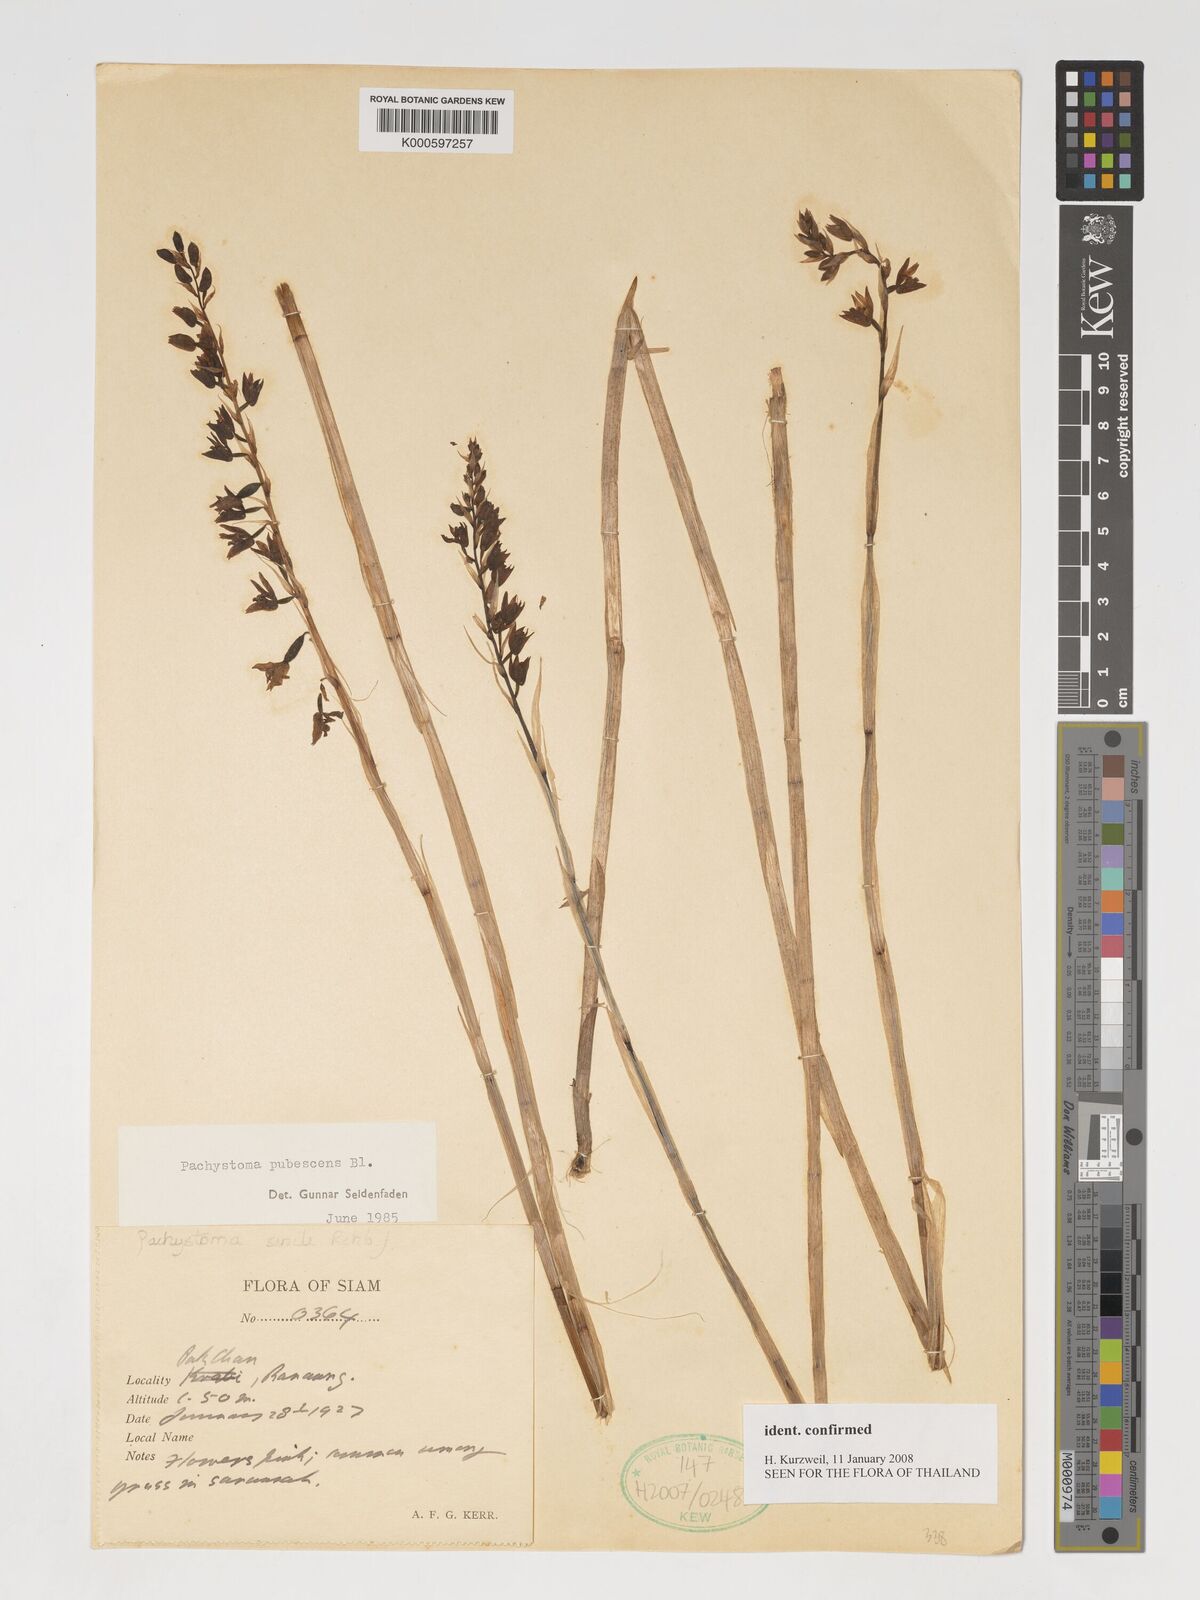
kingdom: Plantae
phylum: Tracheophyta
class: Liliopsida
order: Asparagales
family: Orchidaceae
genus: Pachystoma
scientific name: Pachystoma pubescens
